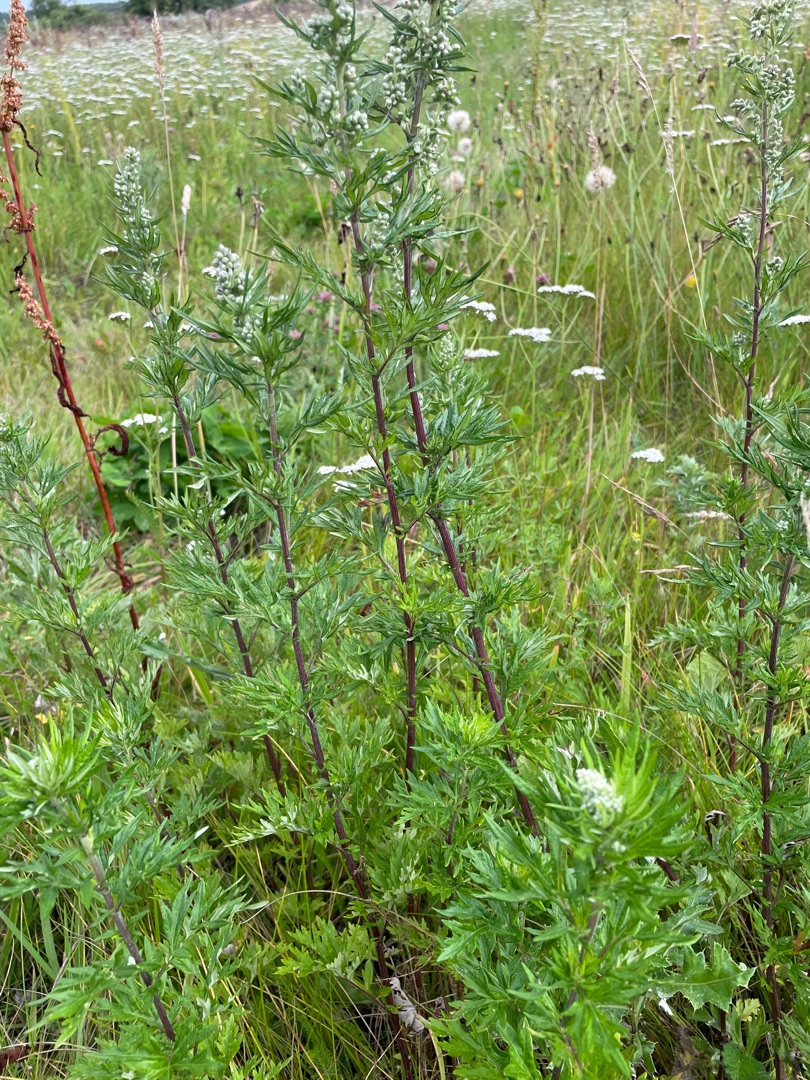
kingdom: Plantae
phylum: Tracheophyta
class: Magnoliopsida
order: Asterales
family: Asteraceae
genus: Artemisia
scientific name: Artemisia vulgaris
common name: Grå-bynke
